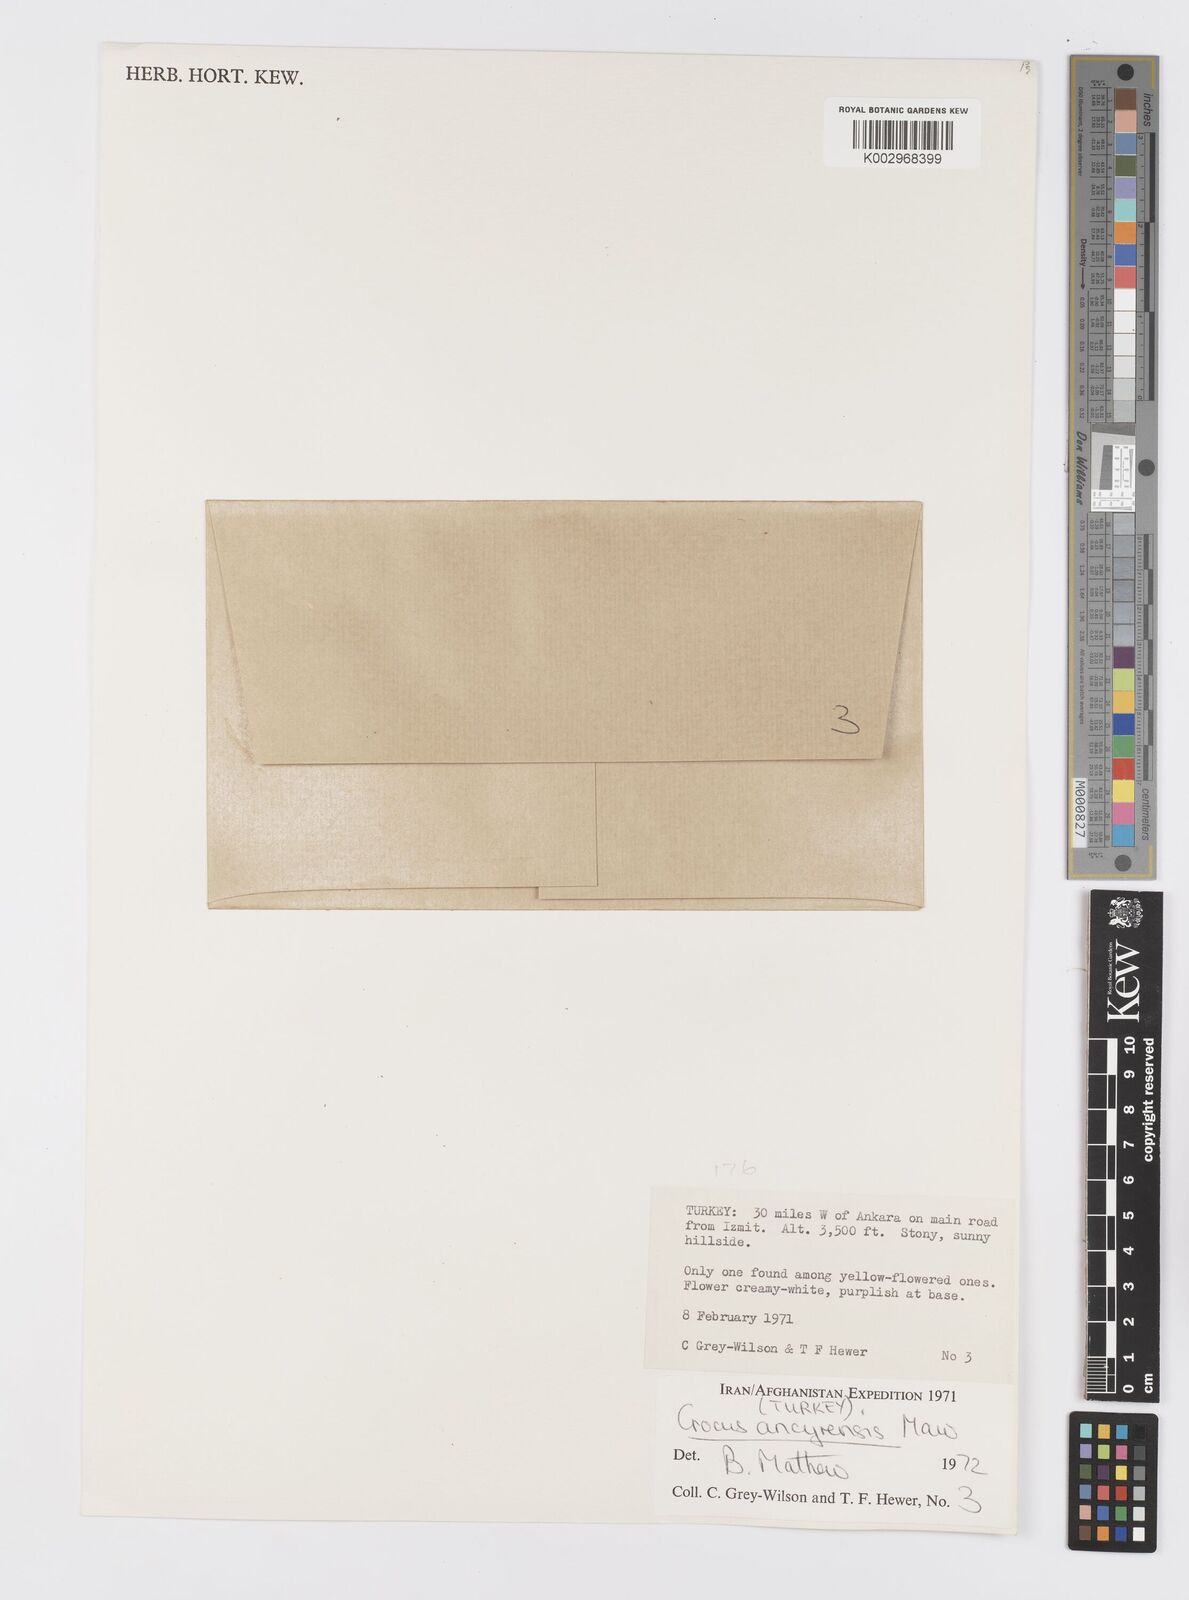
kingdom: Plantae
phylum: Tracheophyta
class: Liliopsida
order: Asparagales
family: Iridaceae
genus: Crocus
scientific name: Crocus ancyrensis
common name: Ankara crocus
